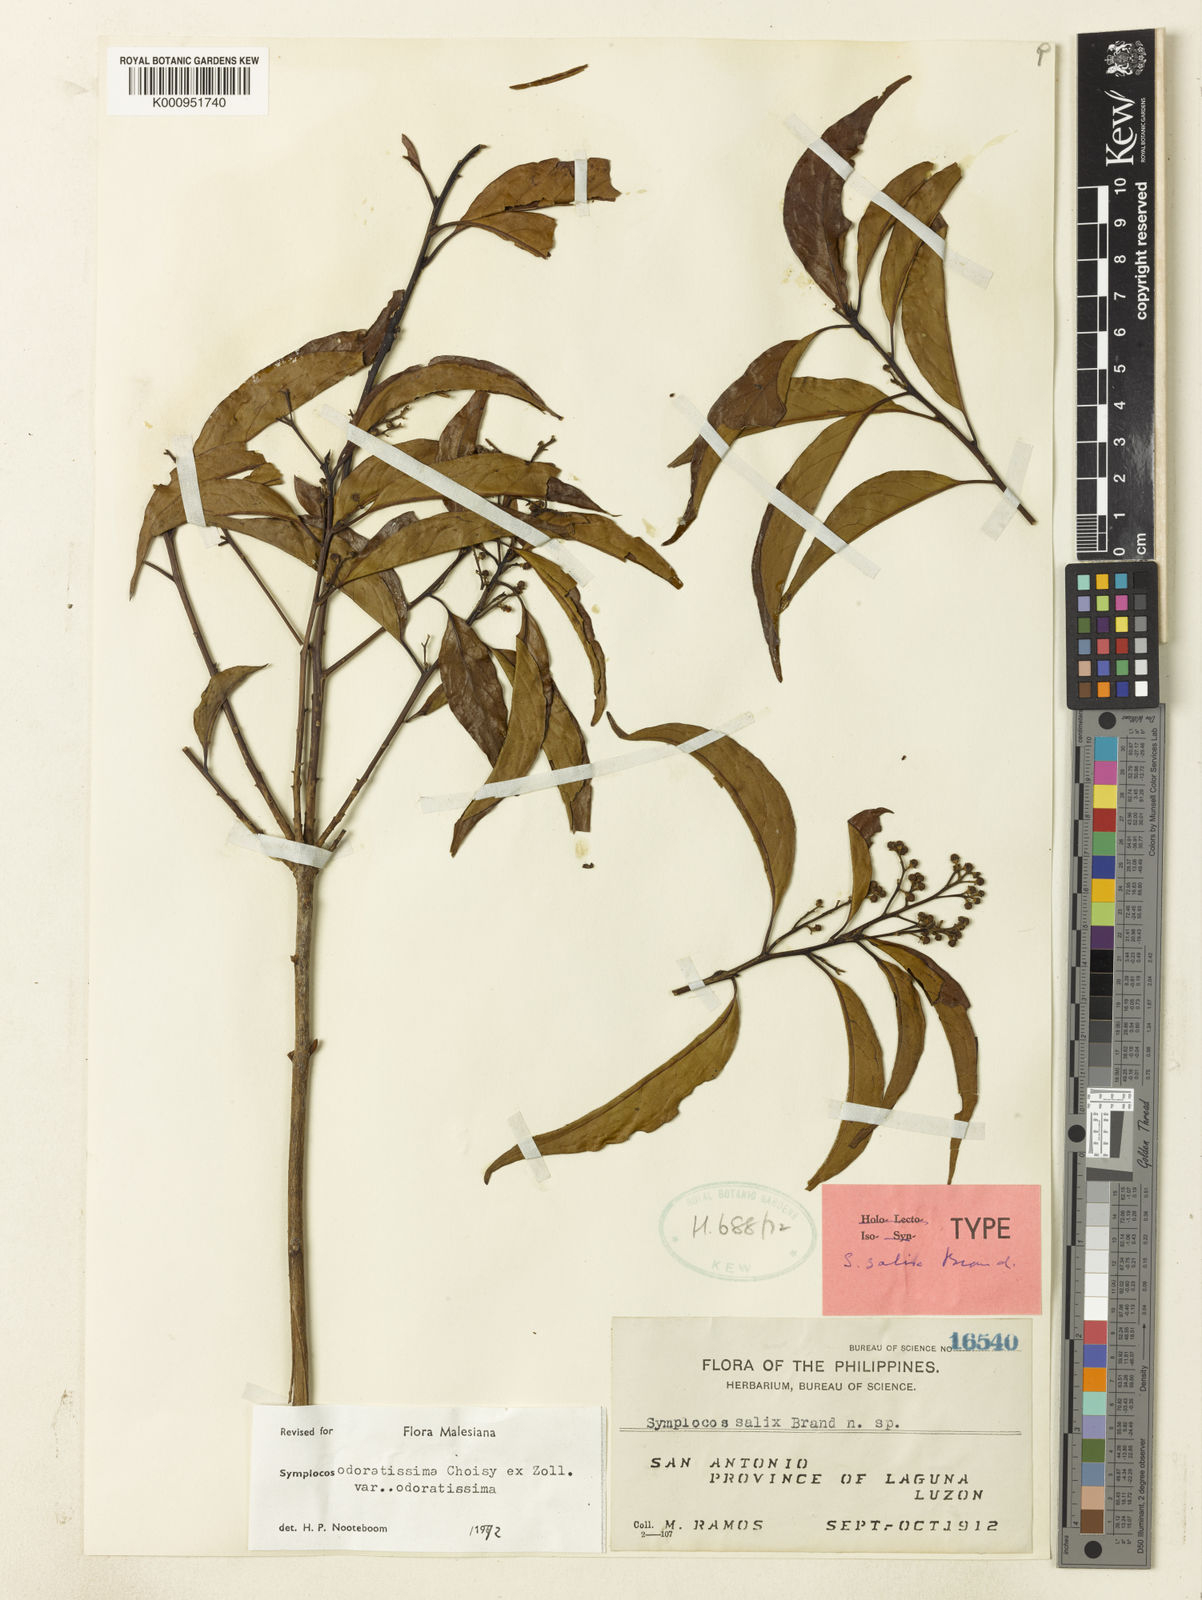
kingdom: Plantae
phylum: Tracheophyta
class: Magnoliopsida
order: Ericales
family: Symplocaceae
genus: Symplocos
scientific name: Symplocos odoratissima
